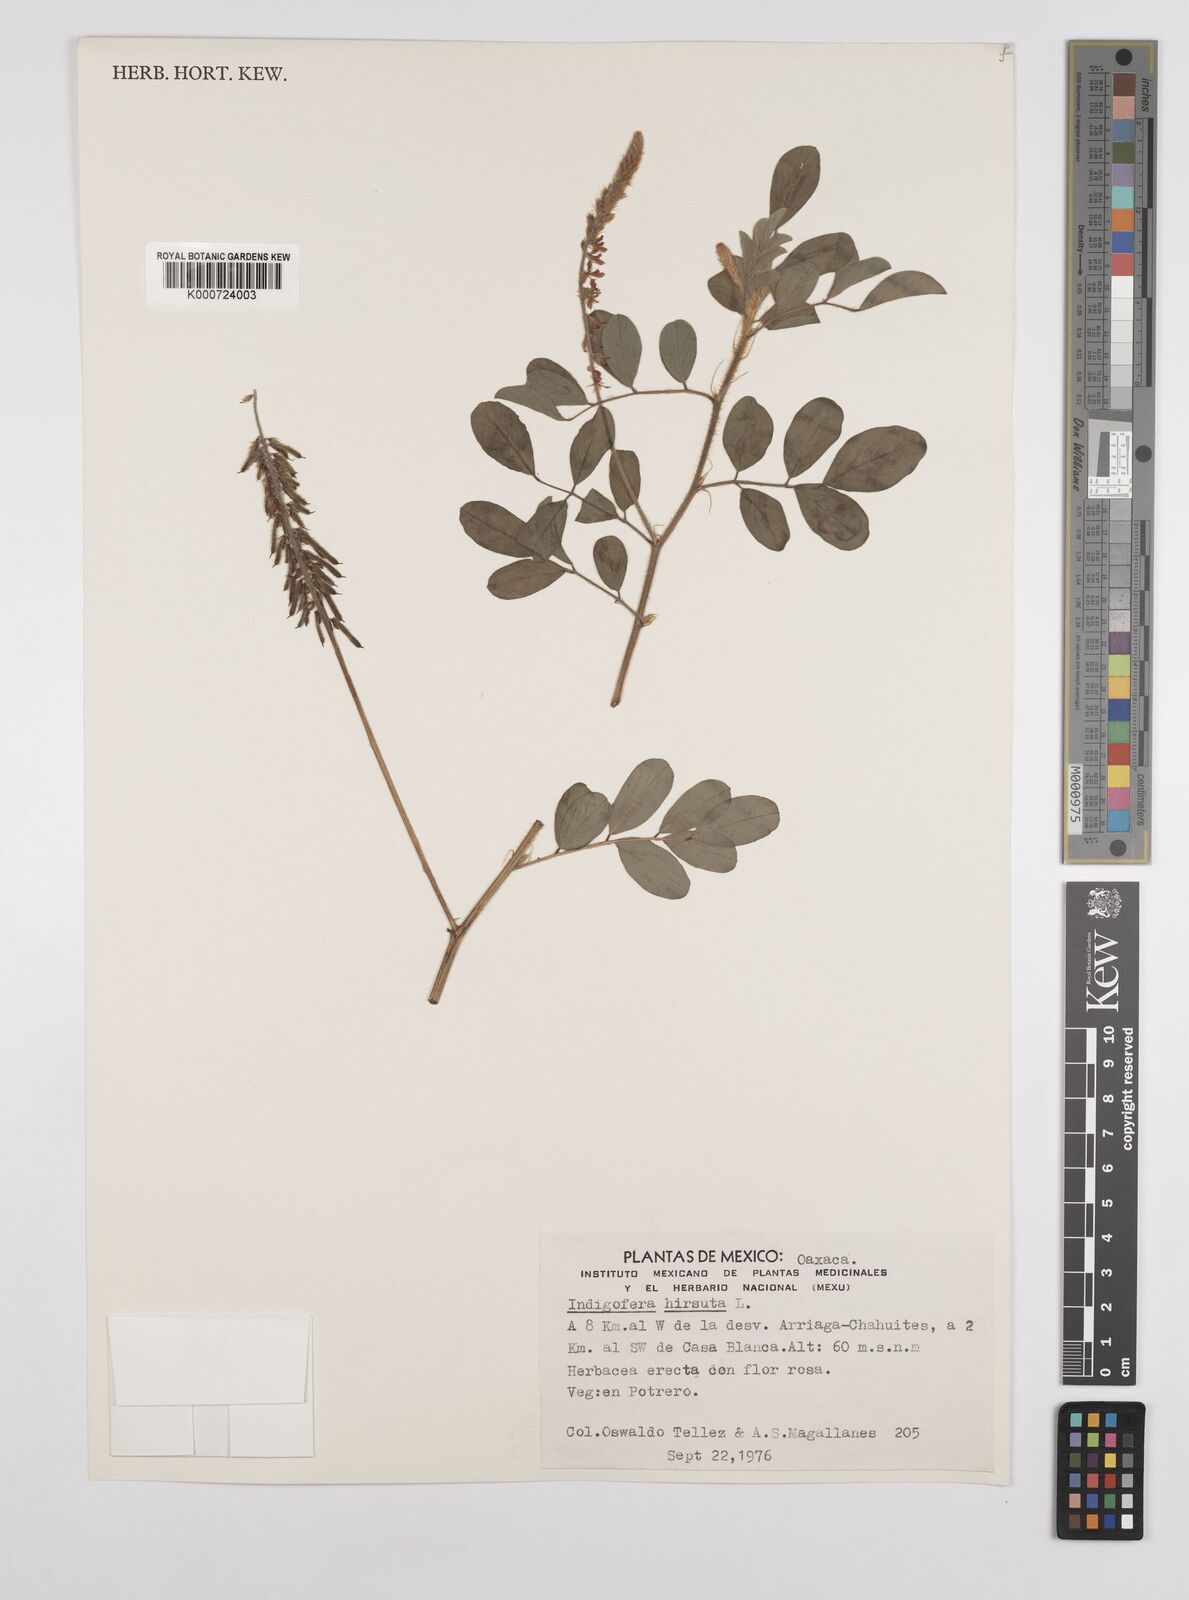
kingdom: Plantae
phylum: Tracheophyta
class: Magnoliopsida
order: Fabales
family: Fabaceae
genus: Indigofera
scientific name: Indigofera hirsuta
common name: Hairy indigo
